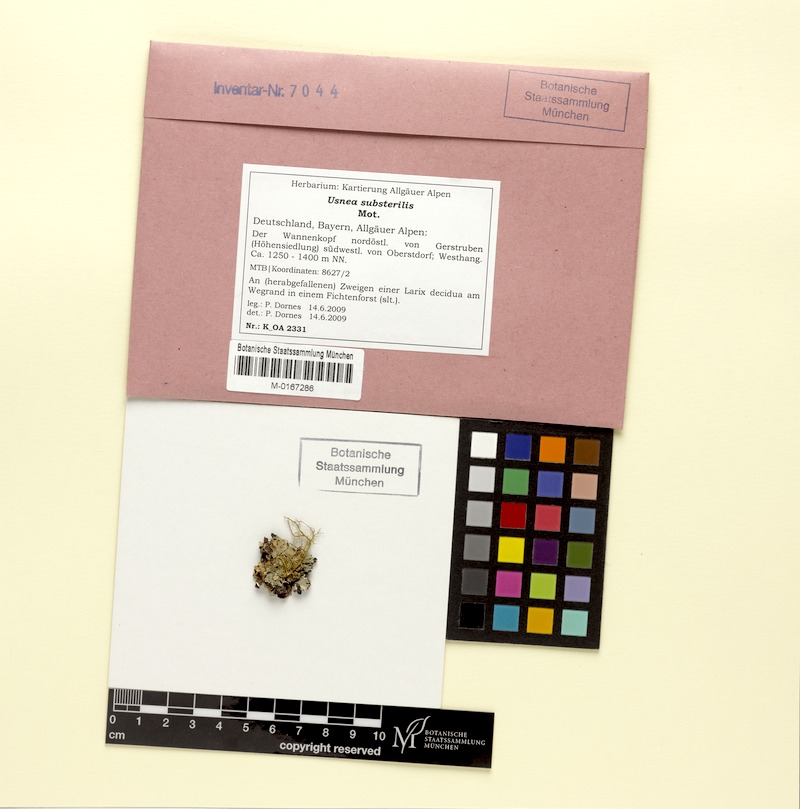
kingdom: Fungi
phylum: Ascomycota
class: Lecanoromycetes
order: Lecanorales
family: Parmeliaceae
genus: Usnea
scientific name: Usnea substerilis
